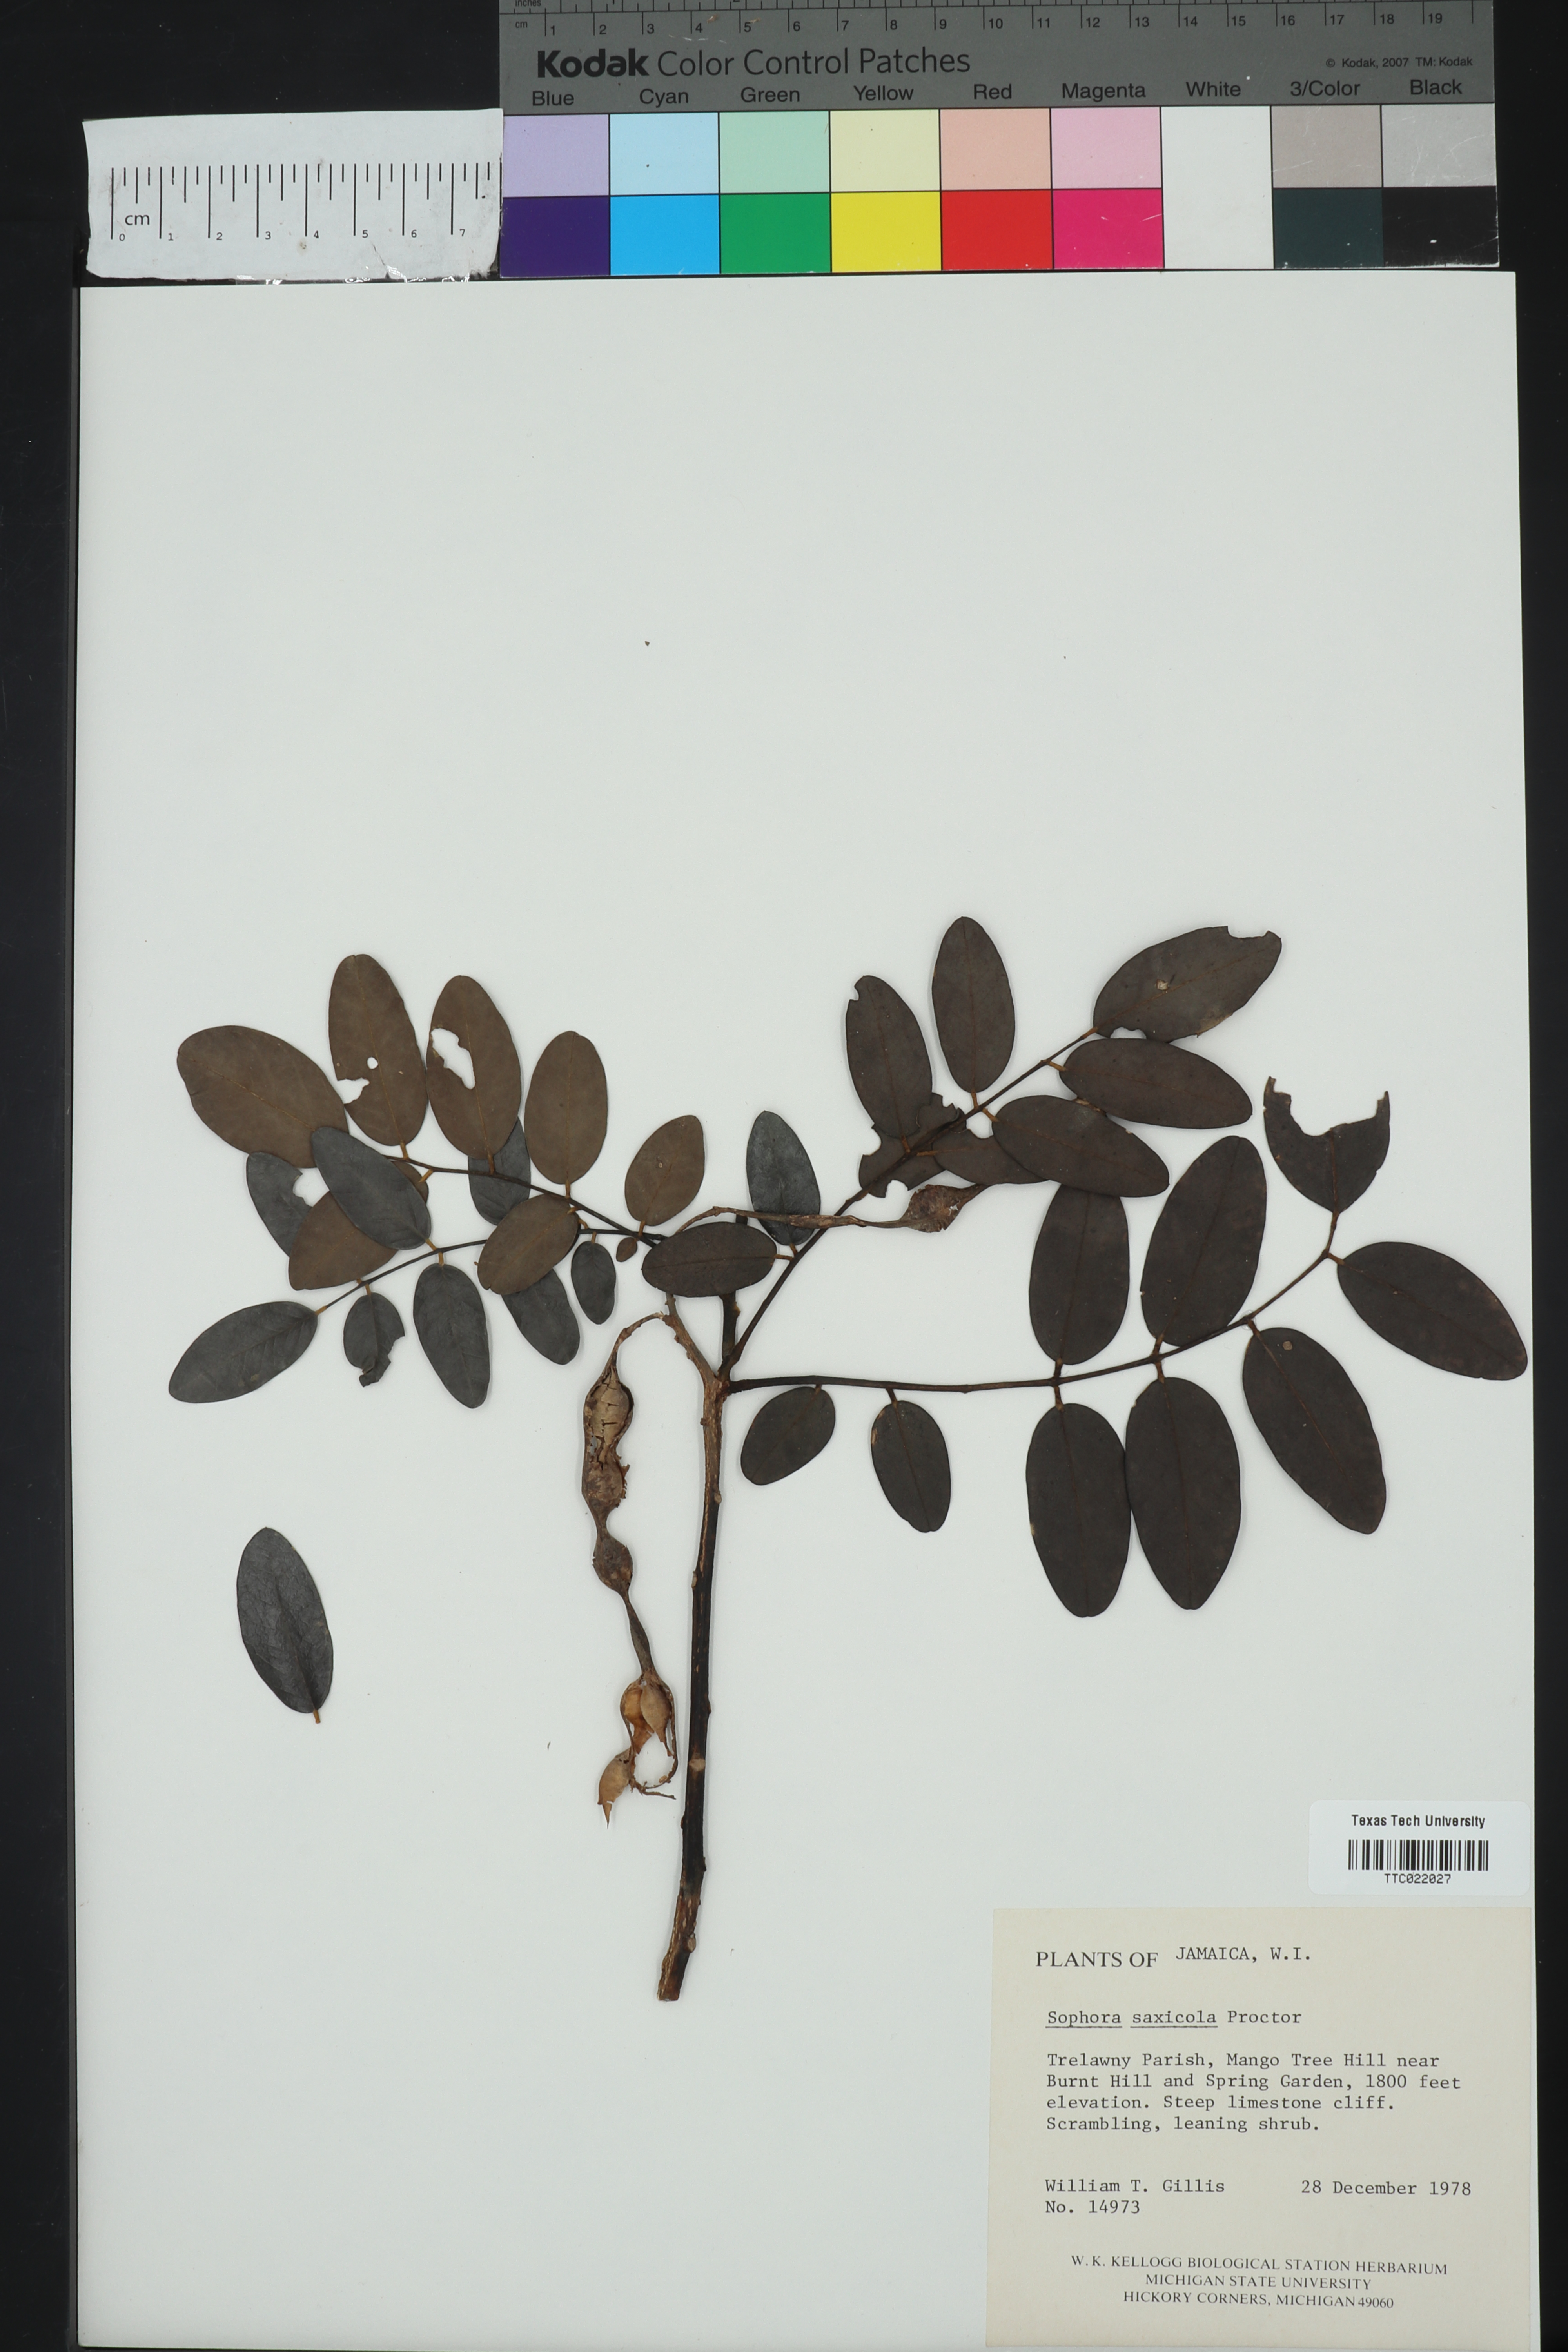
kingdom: Plantae
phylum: Tracheophyta
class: Magnoliopsida
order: Fabales
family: Fabaceae
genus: Sophora
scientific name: Sophora saxicola
